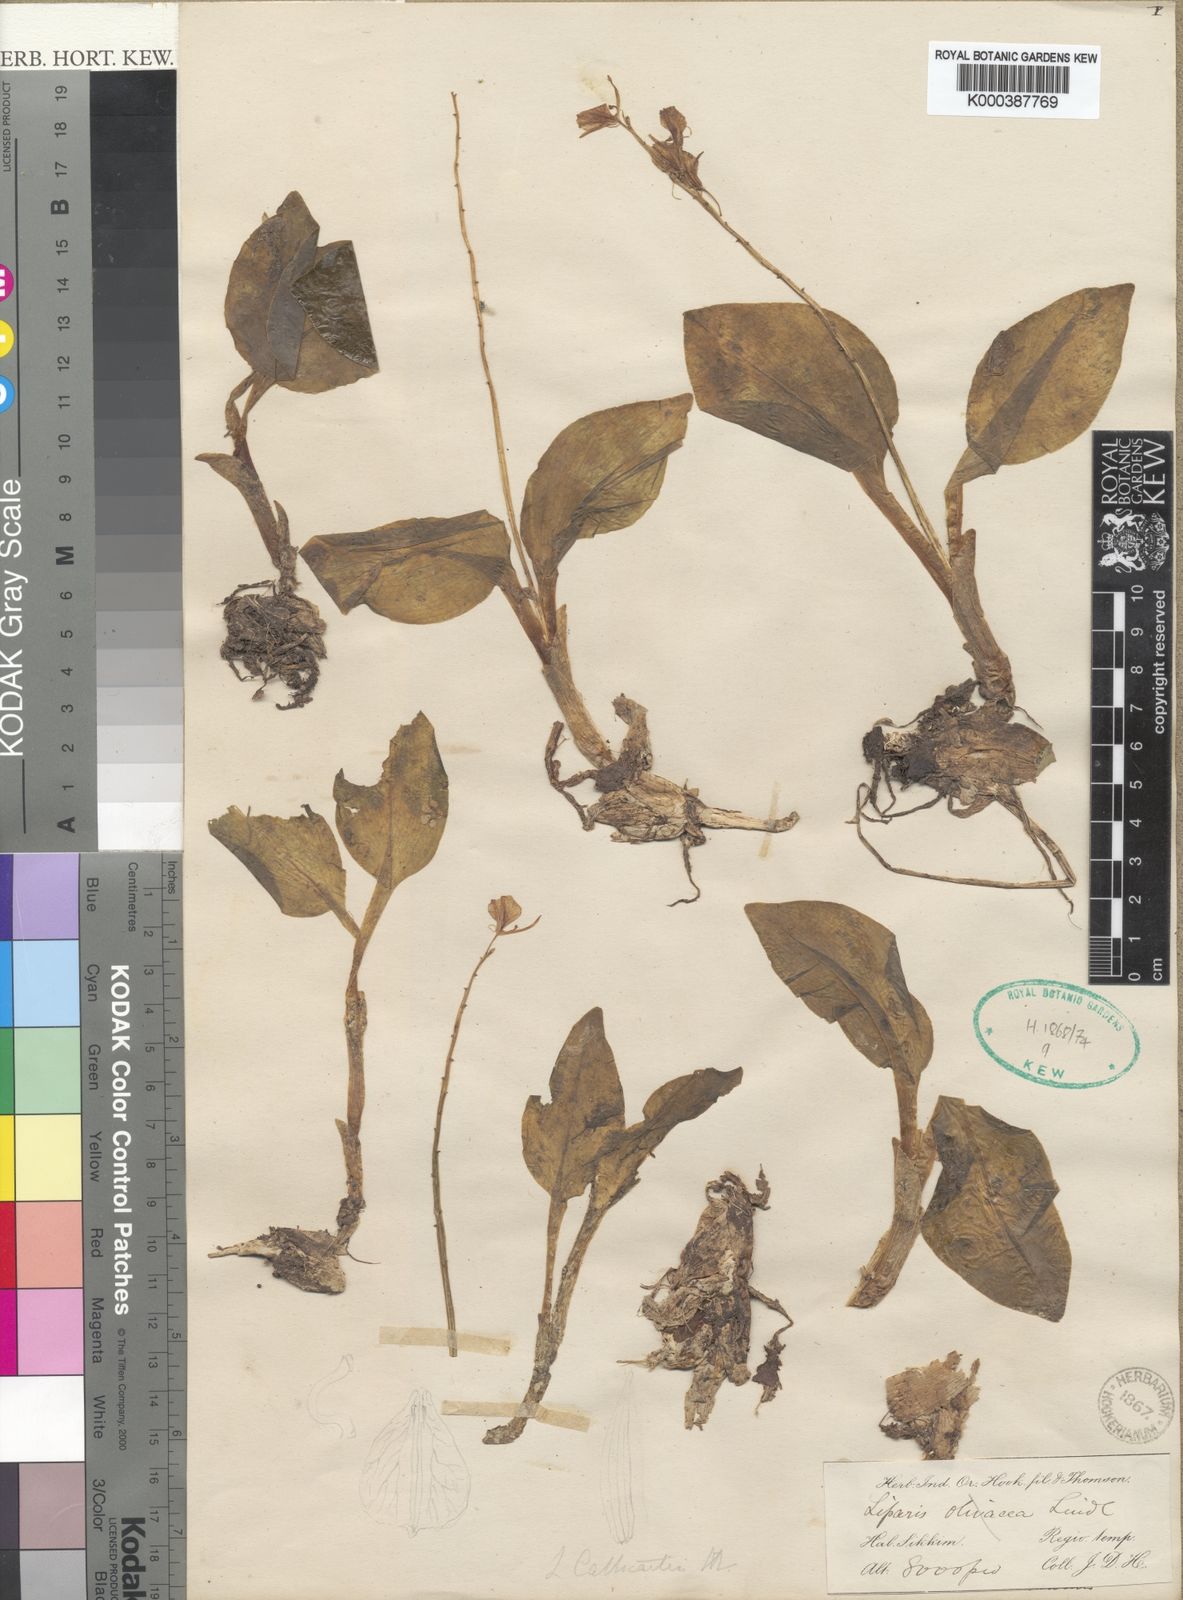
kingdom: Plantae
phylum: Tracheophyta
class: Liliopsida
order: Asparagales
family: Orchidaceae
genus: Liparis
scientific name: Liparis cathcartii
